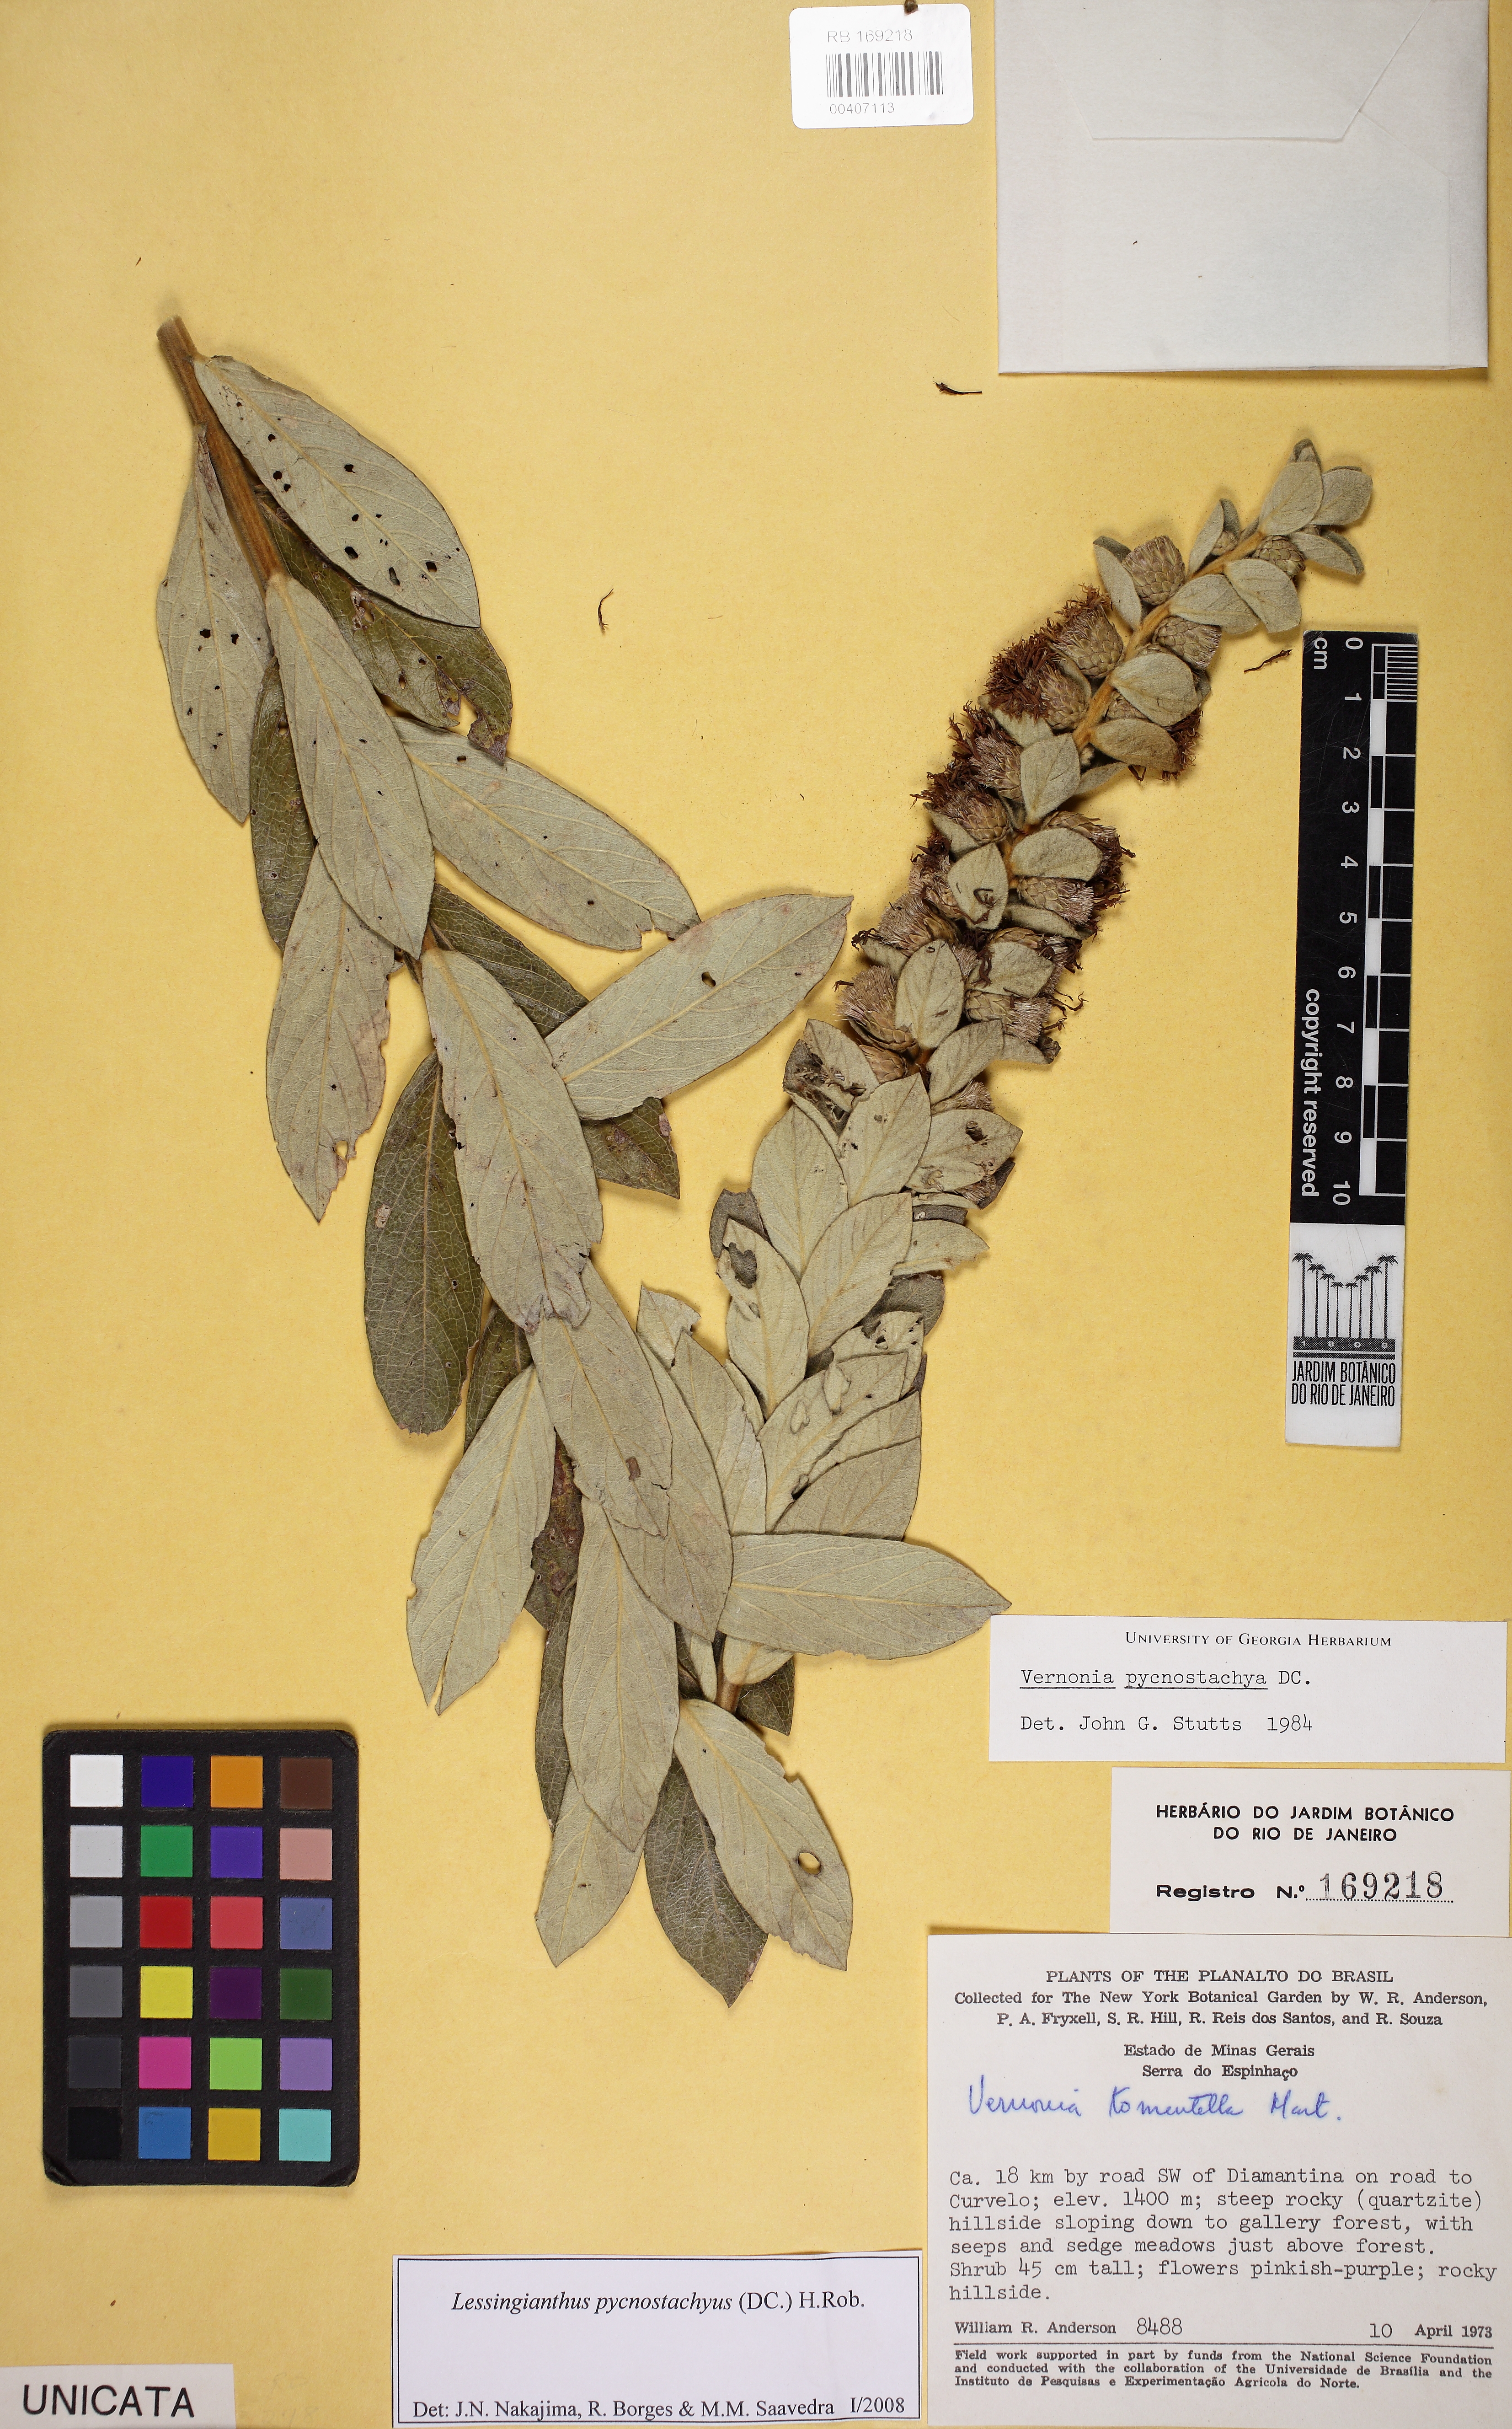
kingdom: Plantae
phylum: Tracheophyta
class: Magnoliopsida
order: Asterales
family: Asteraceae
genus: Lessingianthus
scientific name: Lessingianthus pycnostachyus
